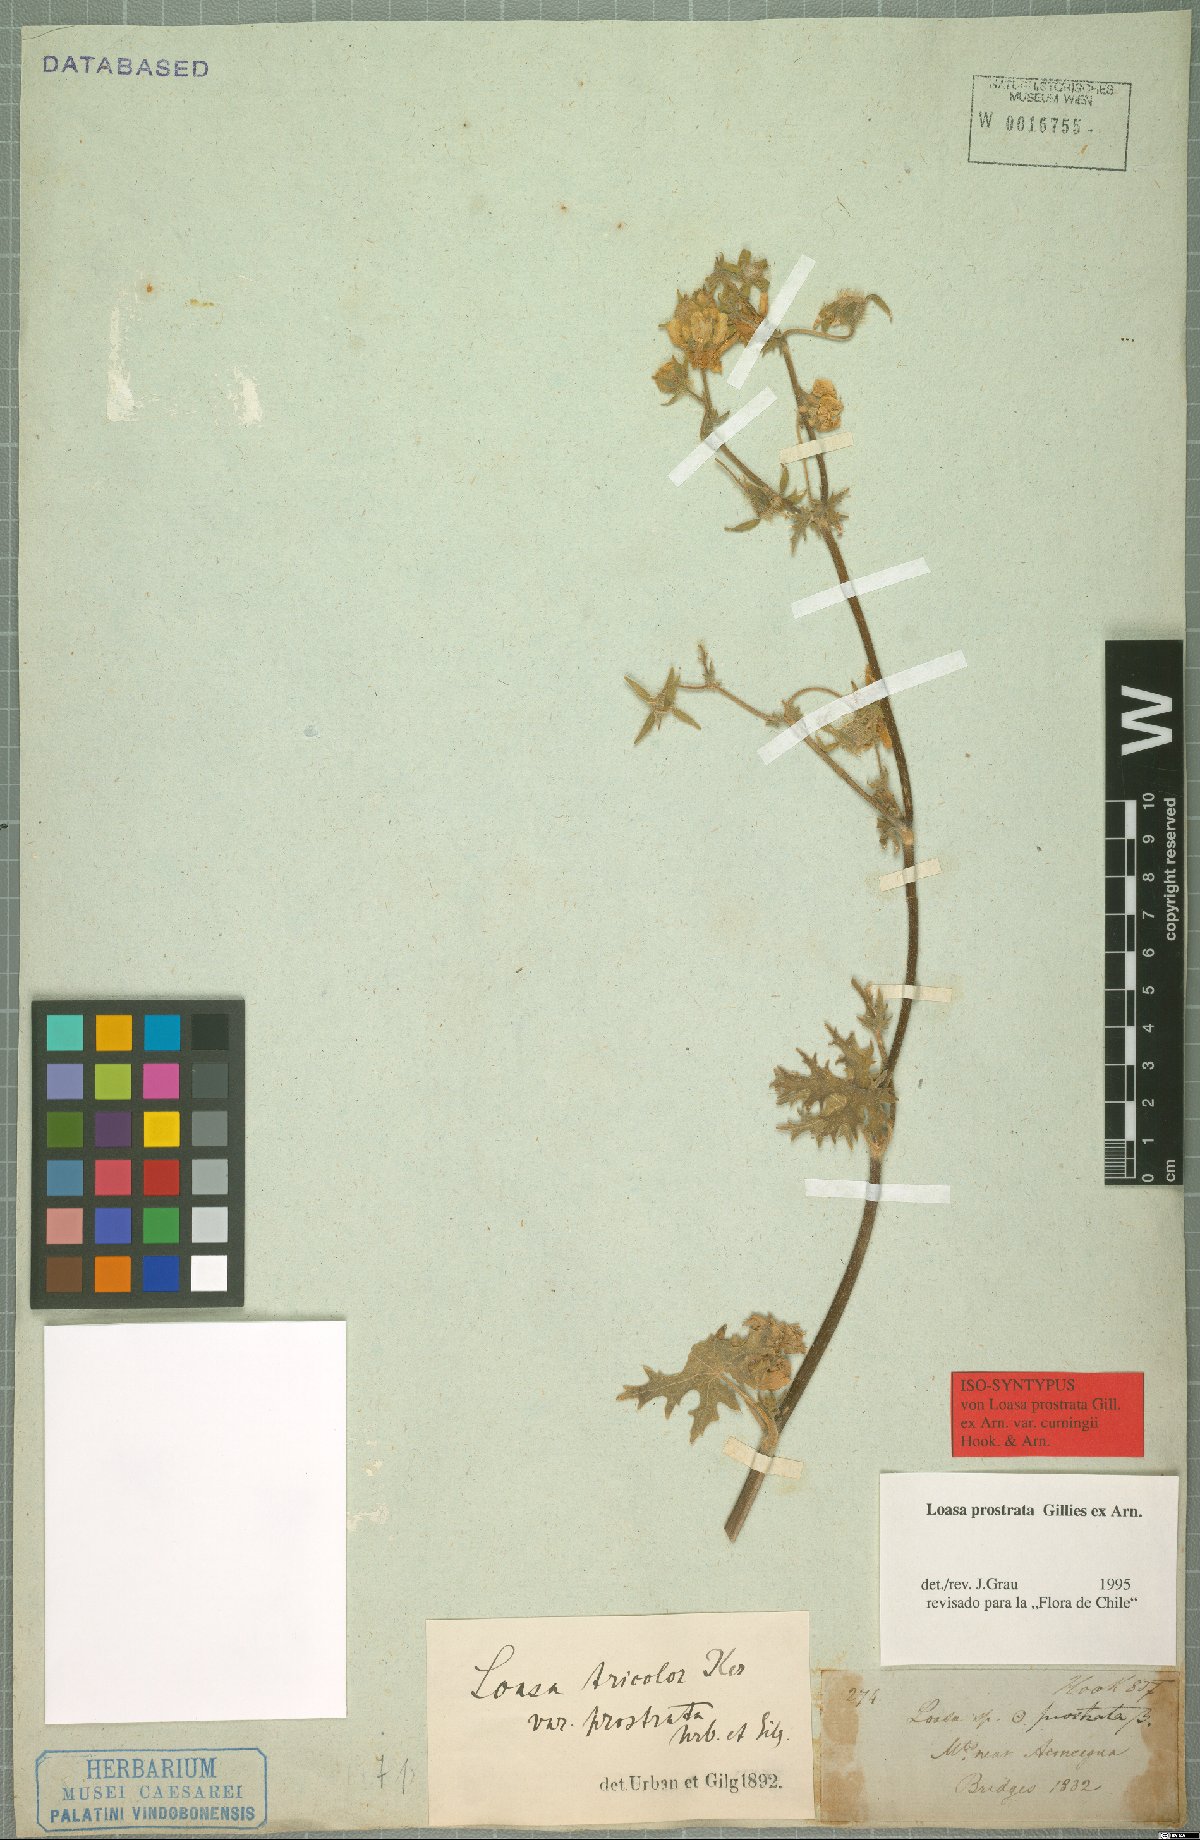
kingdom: Plantae
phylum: Tracheophyta
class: Magnoliopsida
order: Cornales
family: Loasaceae
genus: Loasa
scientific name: Loasa prostrata
